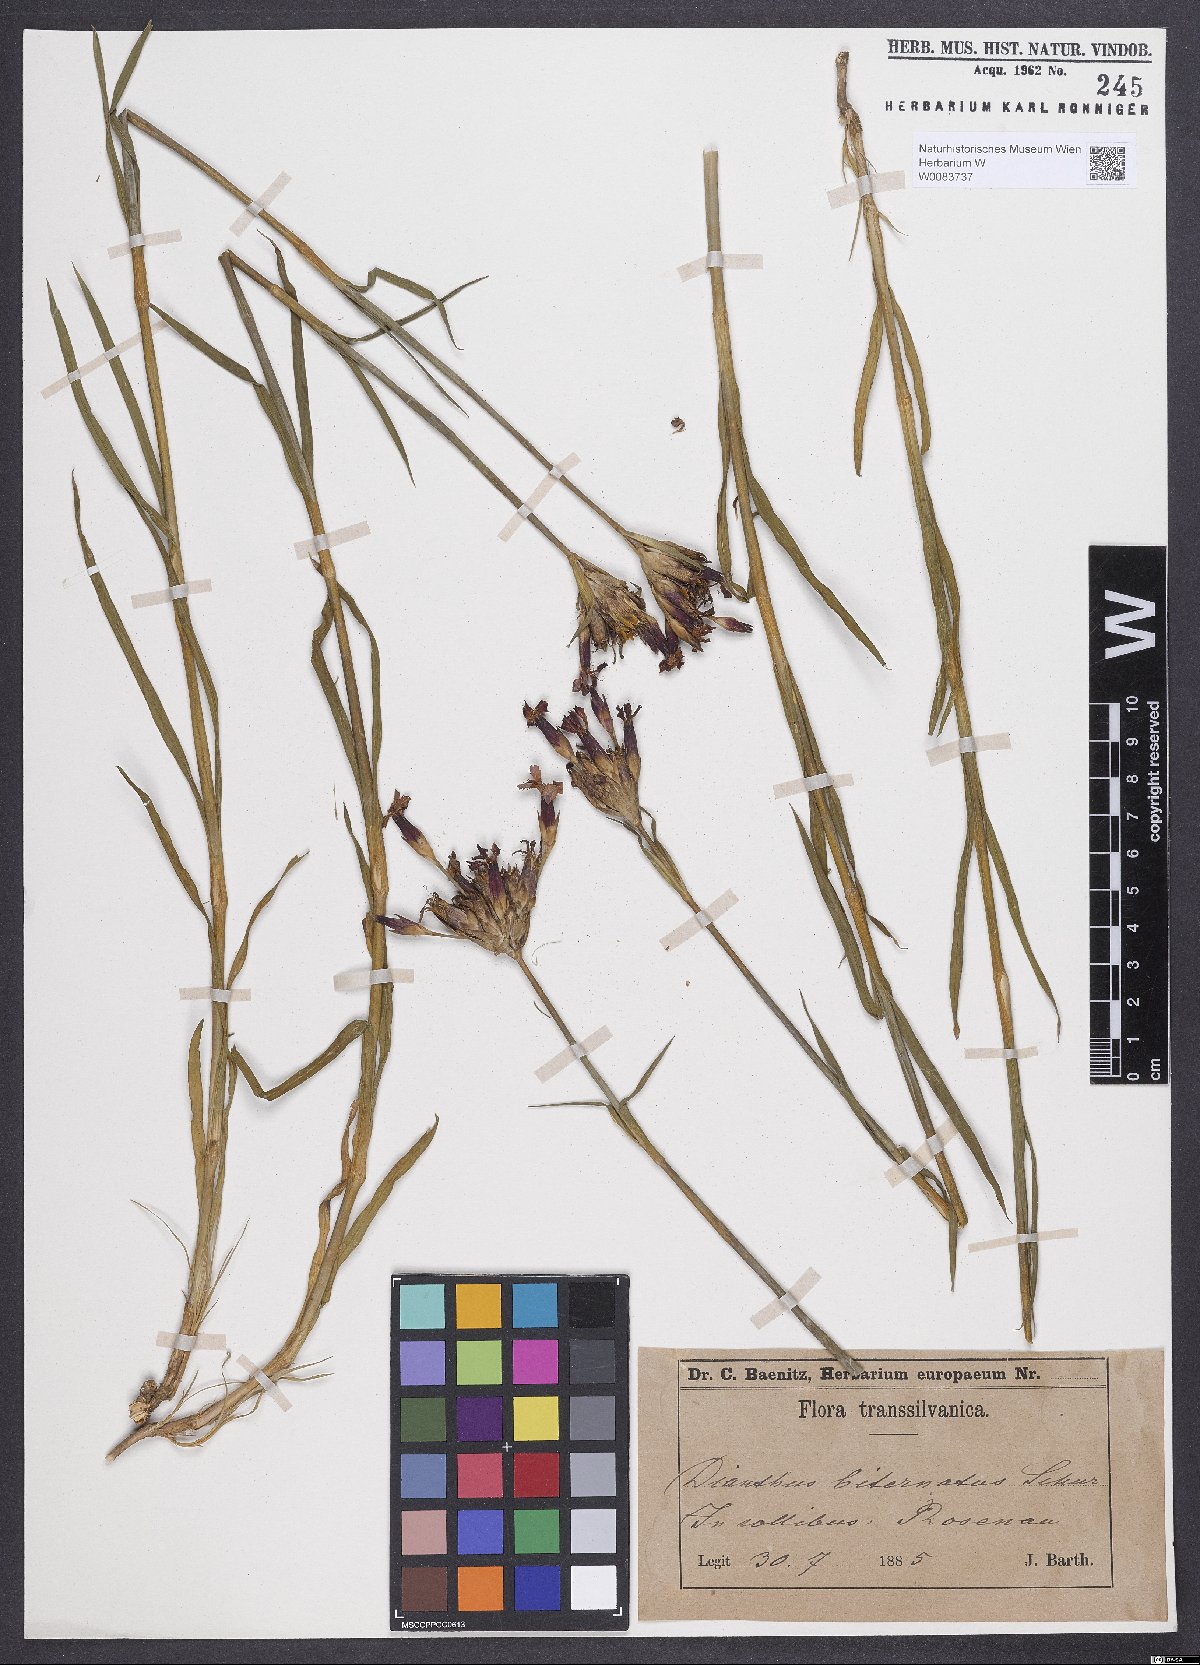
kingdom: Plantae
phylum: Tracheophyta
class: Magnoliopsida
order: Caryophyllales
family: Caryophyllaceae
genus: Dianthus
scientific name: Dianthus giganteus
